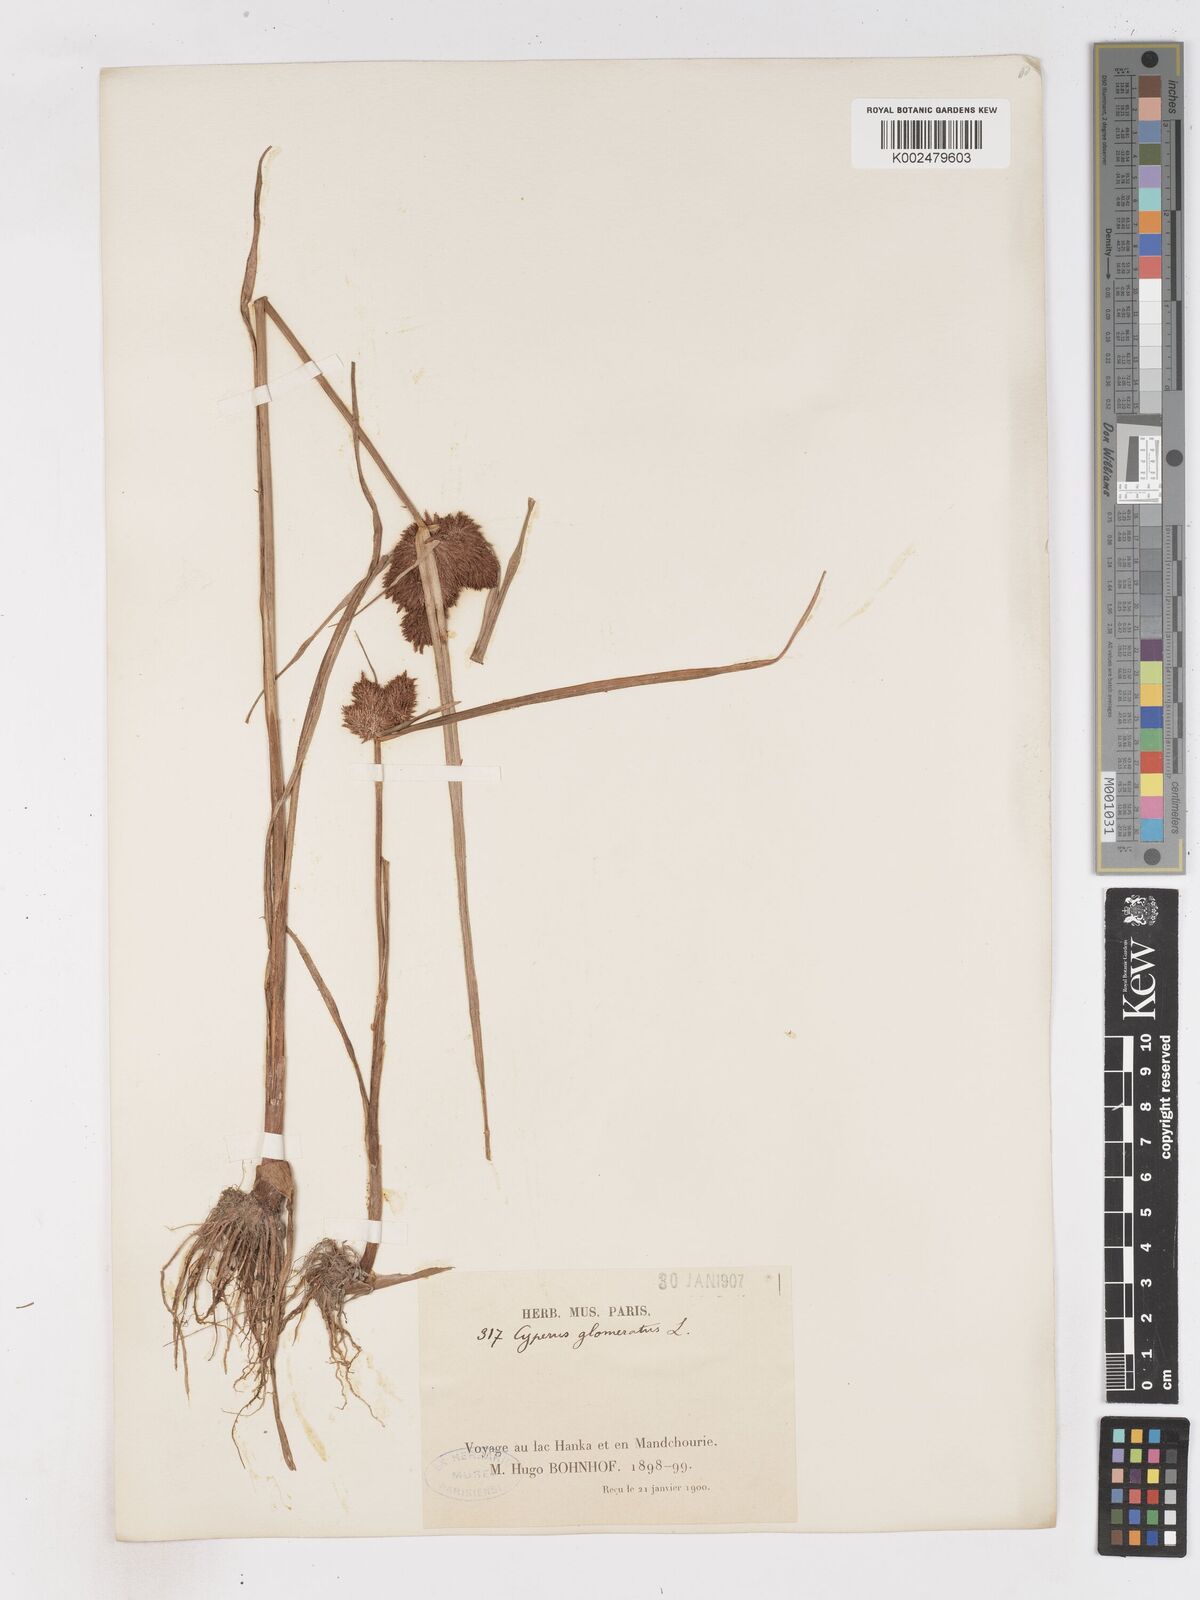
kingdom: Plantae
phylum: Tracheophyta
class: Liliopsida
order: Poales
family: Cyperaceae
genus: Cyperus
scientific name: Cyperus glomeratus
